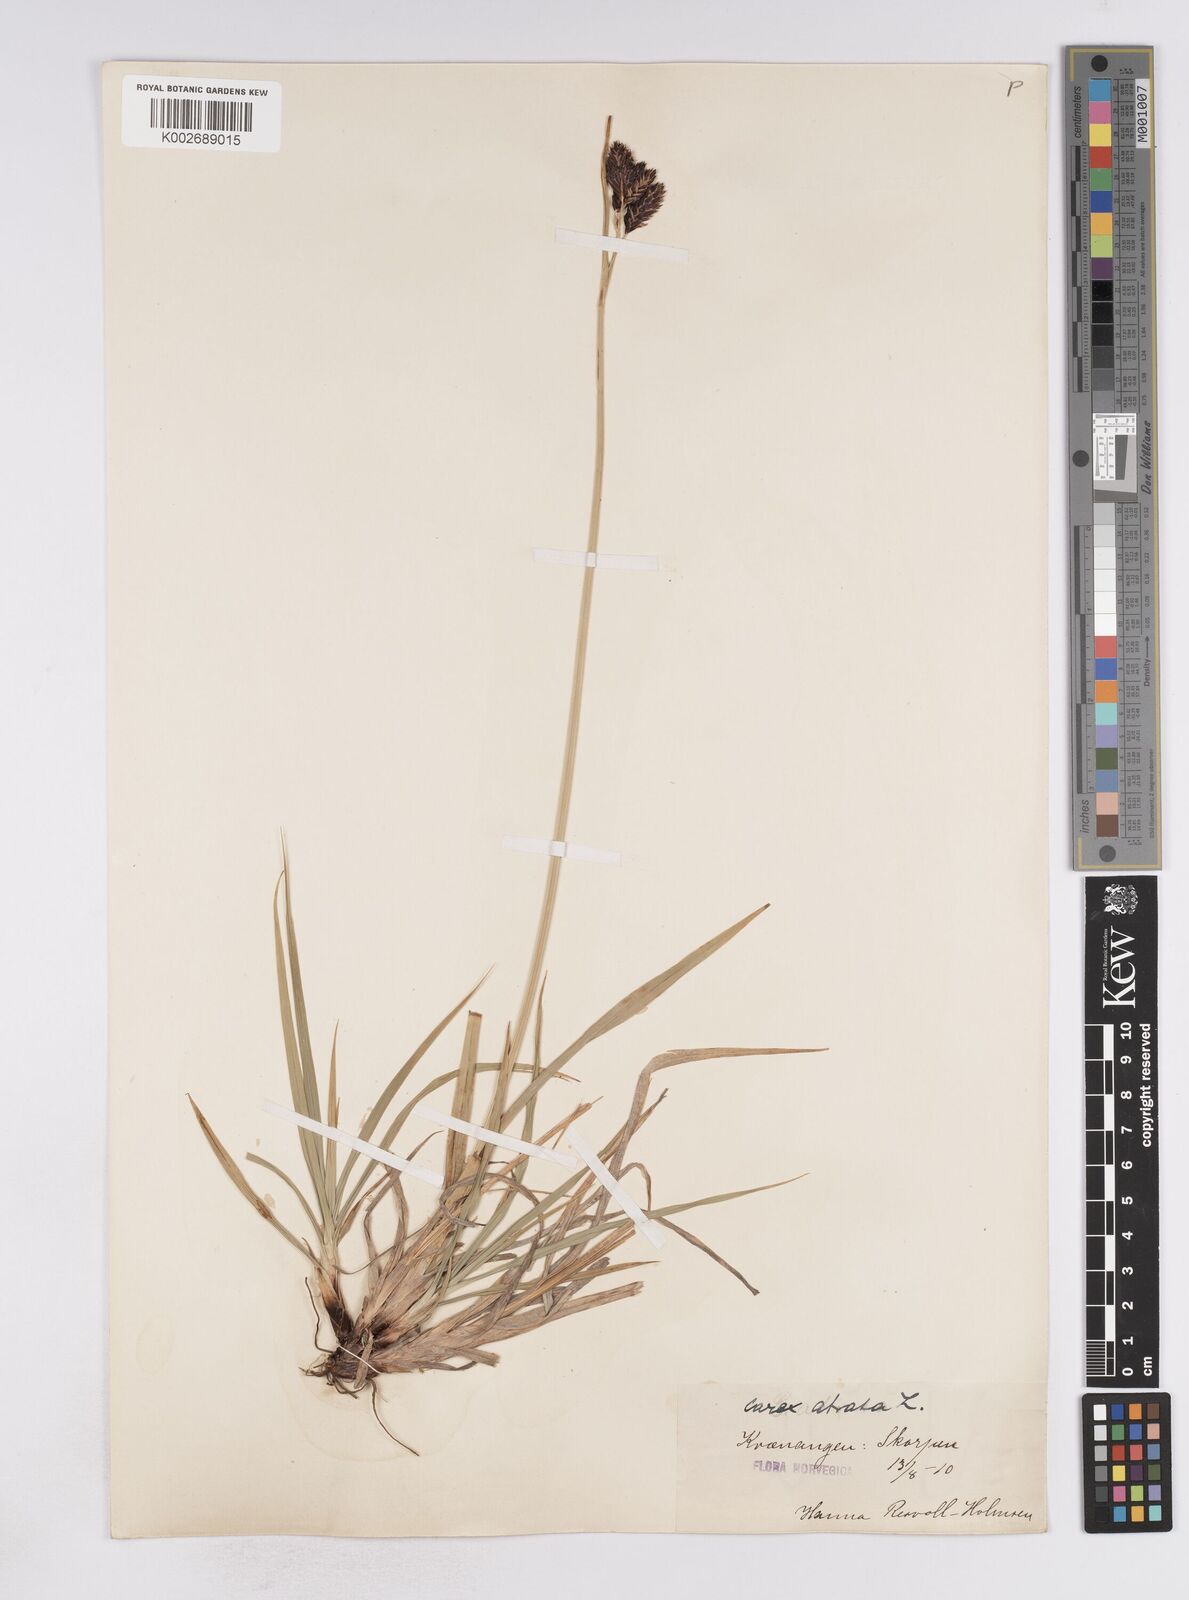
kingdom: Plantae
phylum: Tracheophyta
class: Liliopsida
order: Poales
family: Cyperaceae
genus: Carex
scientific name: Carex atrata
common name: Black alpine sedge
